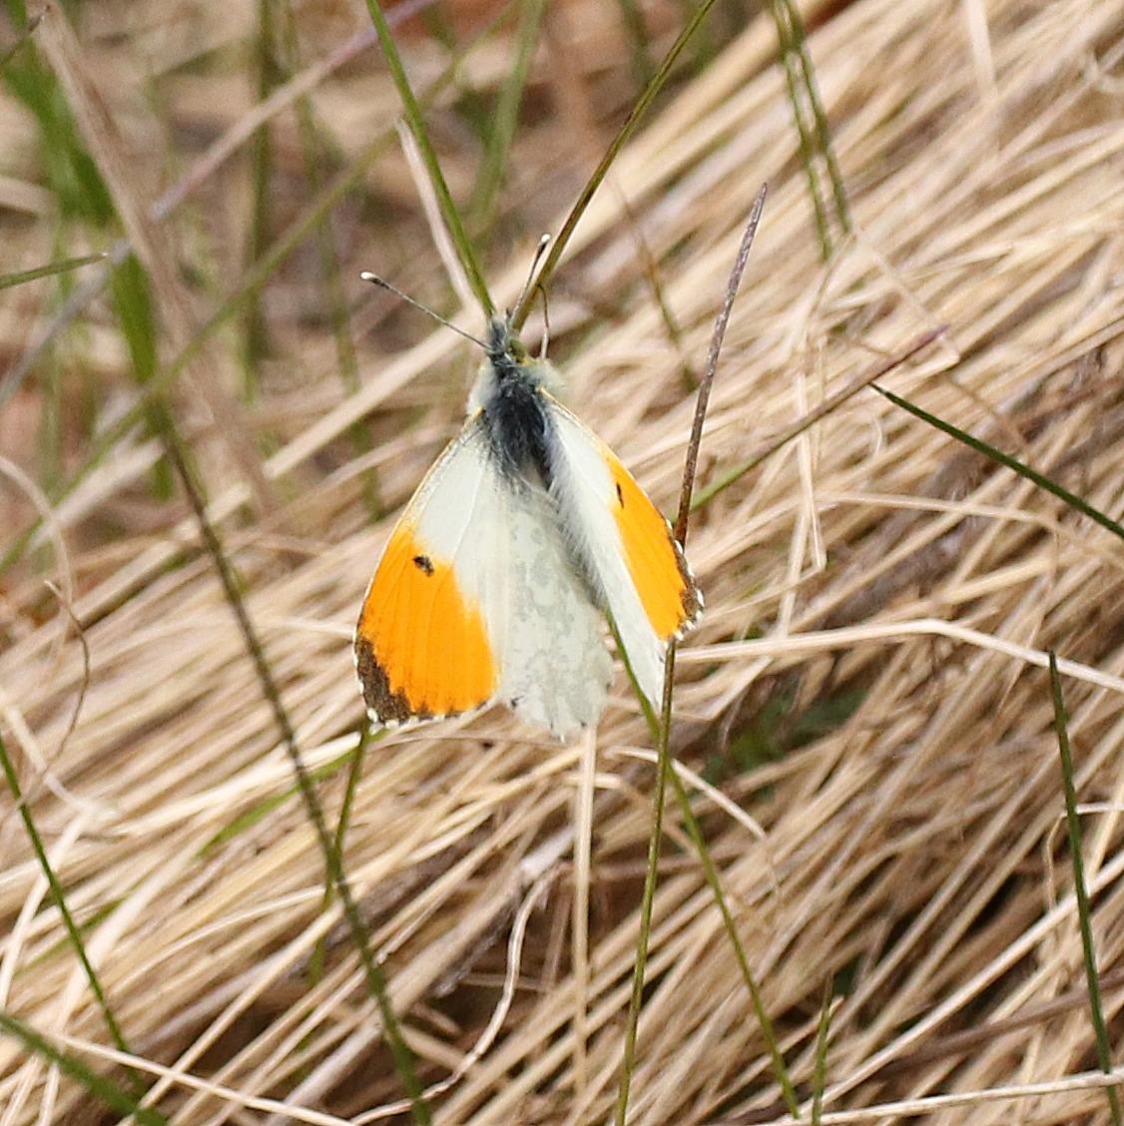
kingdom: Animalia
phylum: Arthropoda
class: Insecta
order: Lepidoptera
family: Pieridae
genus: Anthocharis
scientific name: Anthocharis cardamines
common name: Aurora
